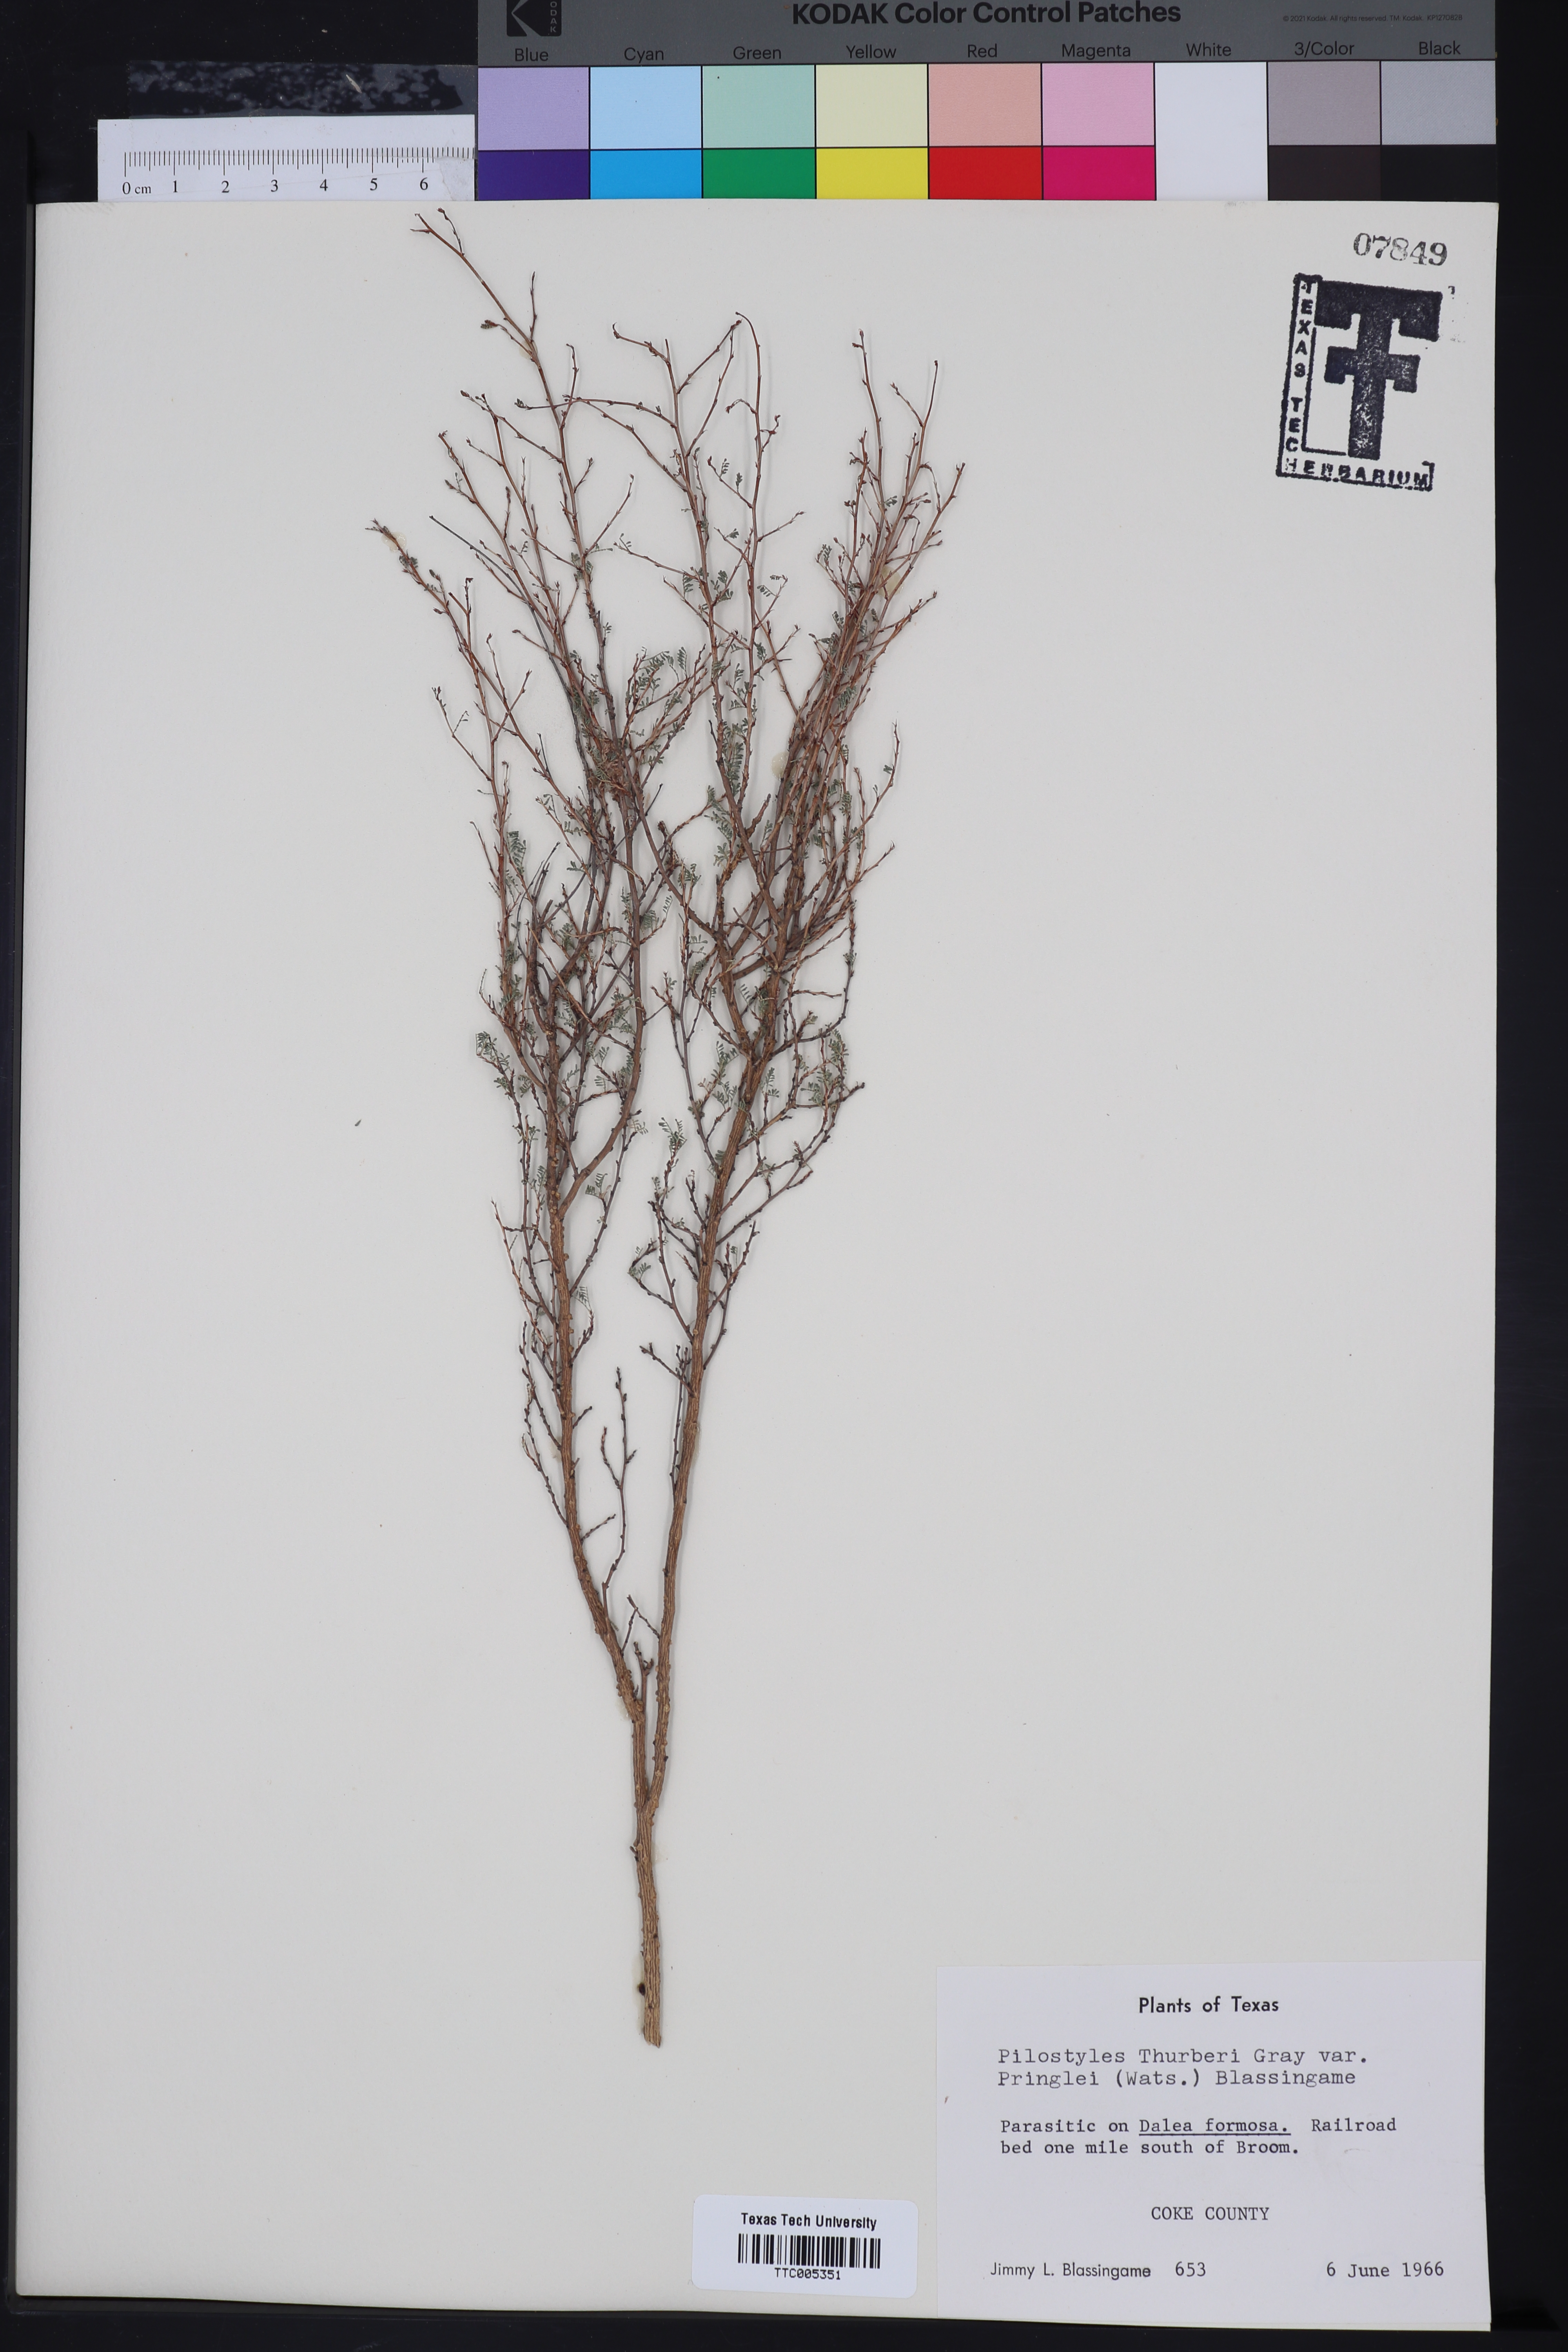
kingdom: Plantae
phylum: Tracheophyta
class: Magnoliopsida
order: Cucurbitales
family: Apodanthaceae
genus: Pilostyles
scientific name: Pilostyles thurberi
